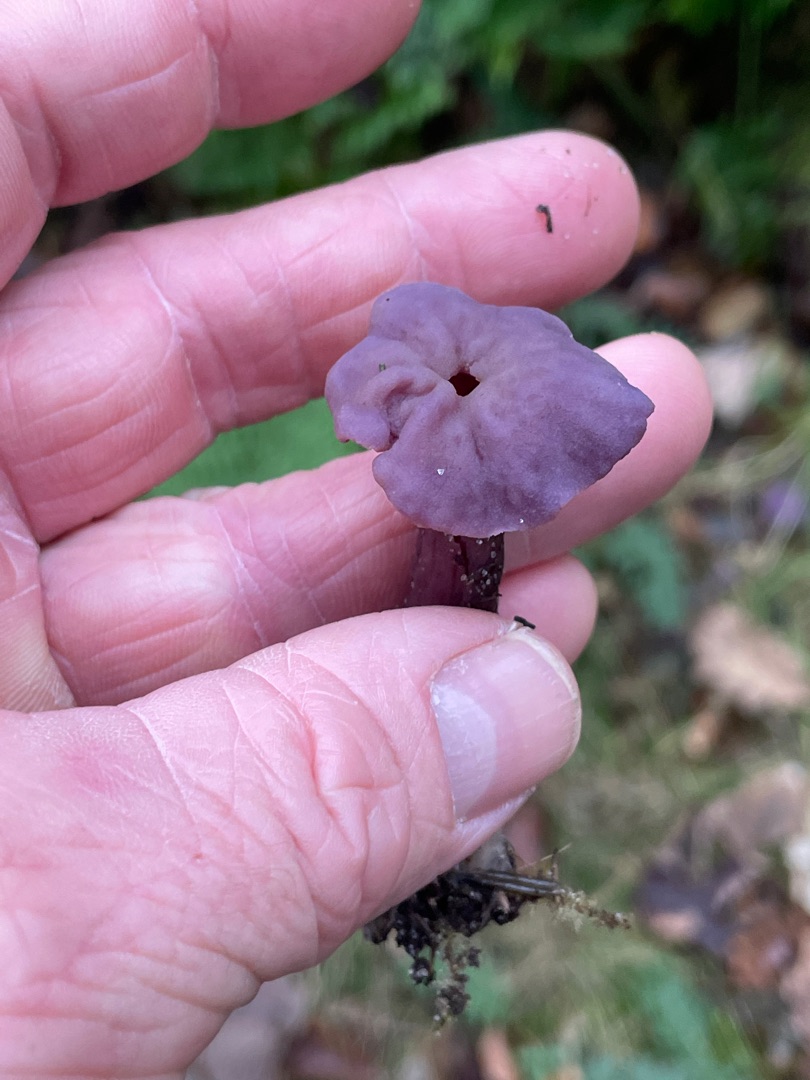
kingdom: Fungi
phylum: Basidiomycota
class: Agaricomycetes
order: Agaricales
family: Hydnangiaceae
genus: Laccaria
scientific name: Laccaria amethystina
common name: Violet ametysthat
